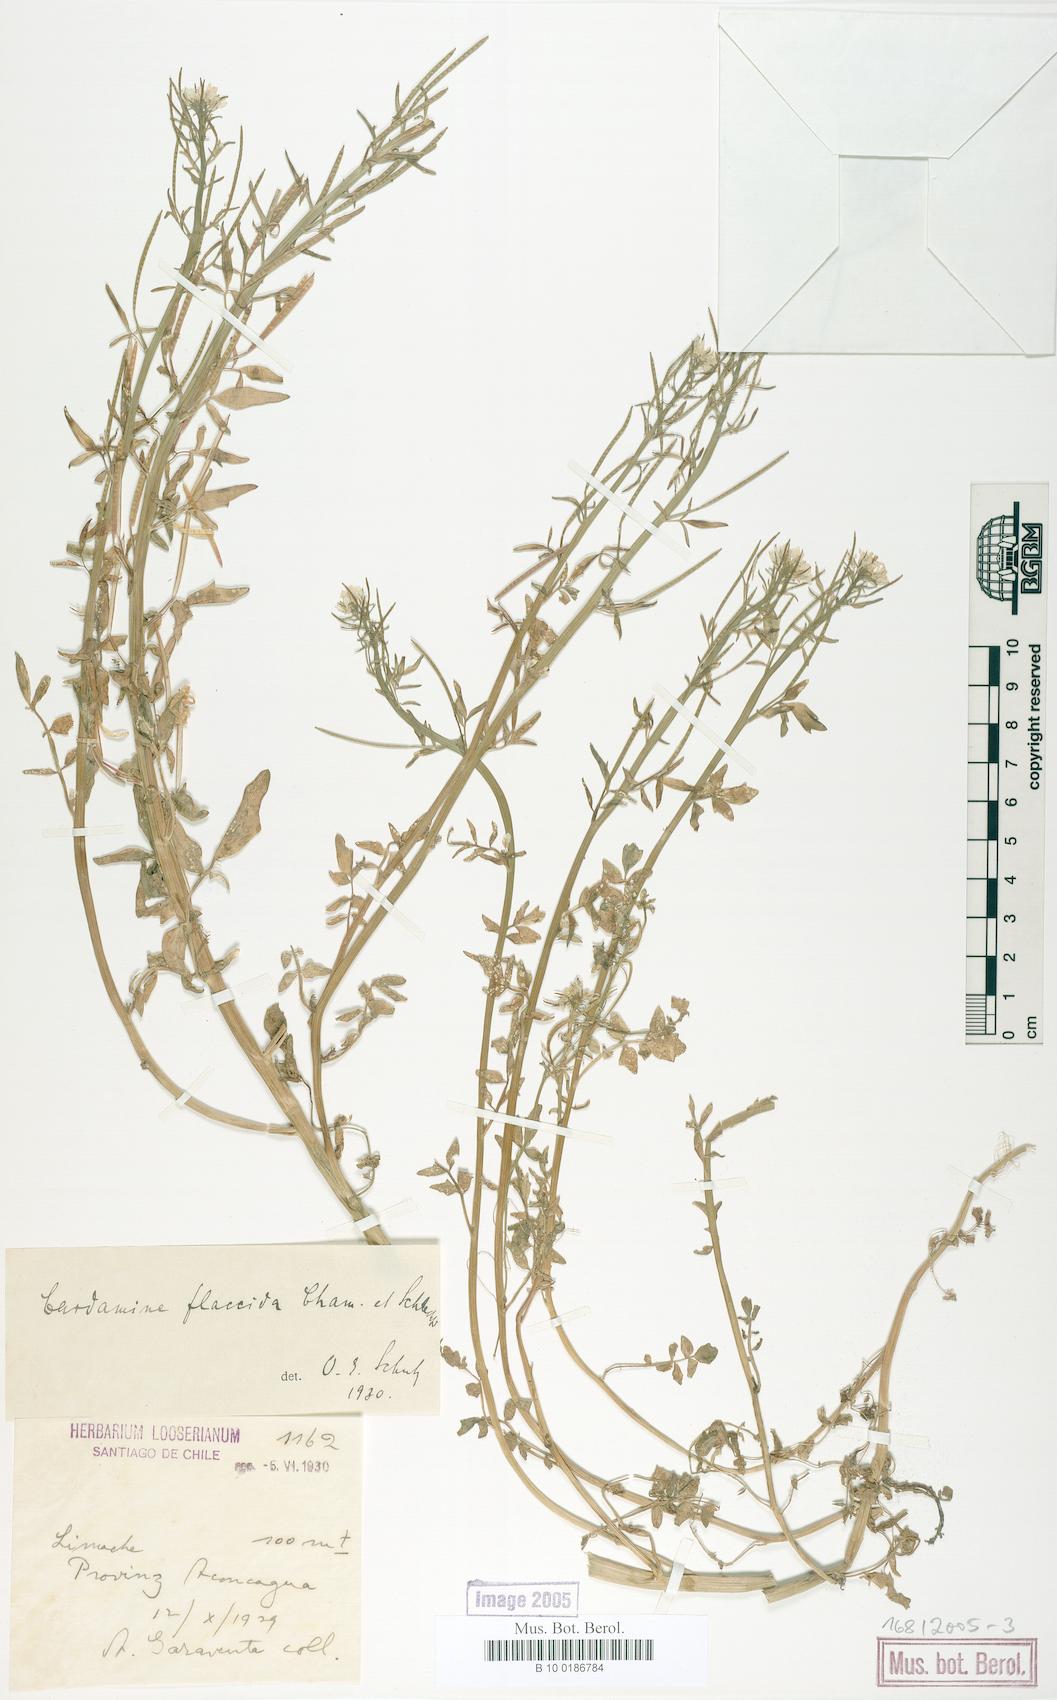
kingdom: Plantae
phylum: Tracheophyta
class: Magnoliopsida
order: Brassicales
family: Brassicaceae
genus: Cardamine
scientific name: Cardamine flaccida
